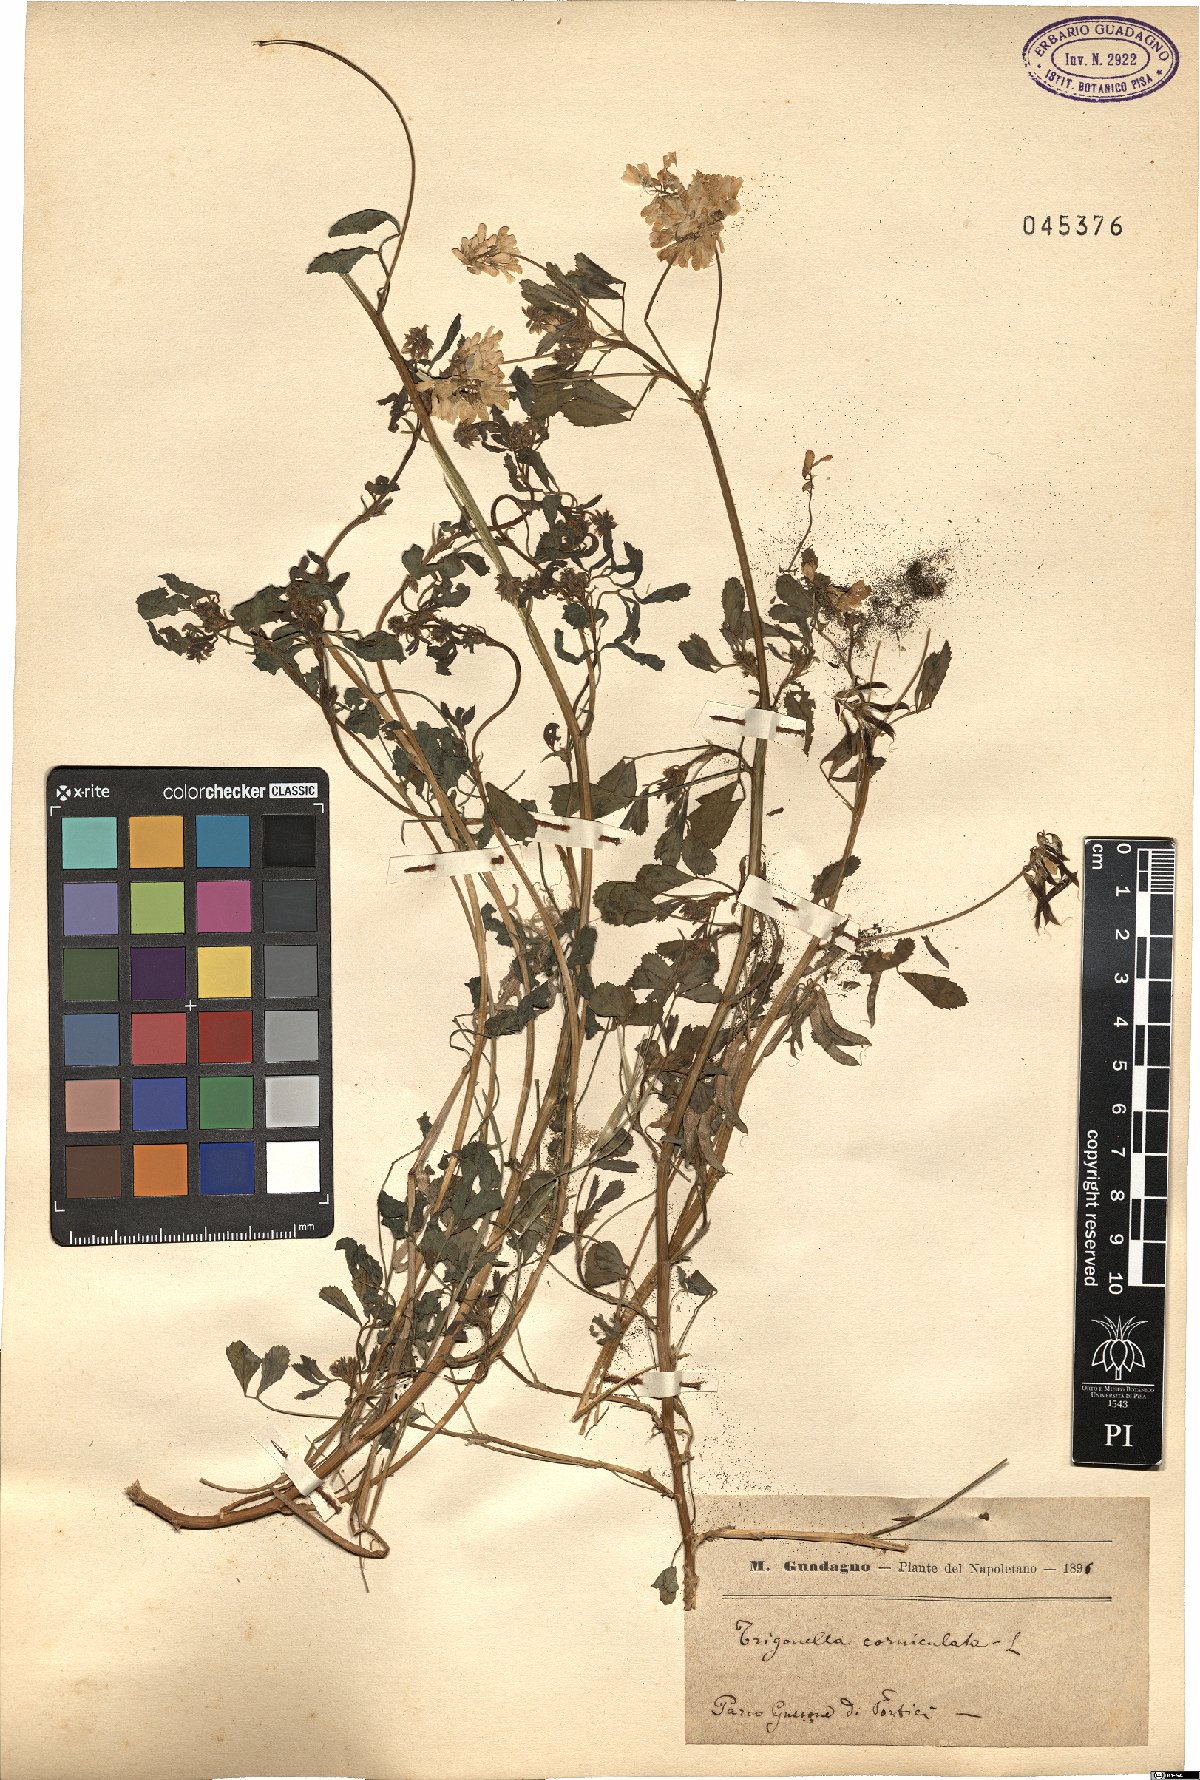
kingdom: Plantae
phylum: Tracheophyta
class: Magnoliopsida
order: Fabales
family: Fabaceae
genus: Trigonella
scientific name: Trigonella balansae
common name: Sickle-fruited fenugreek
